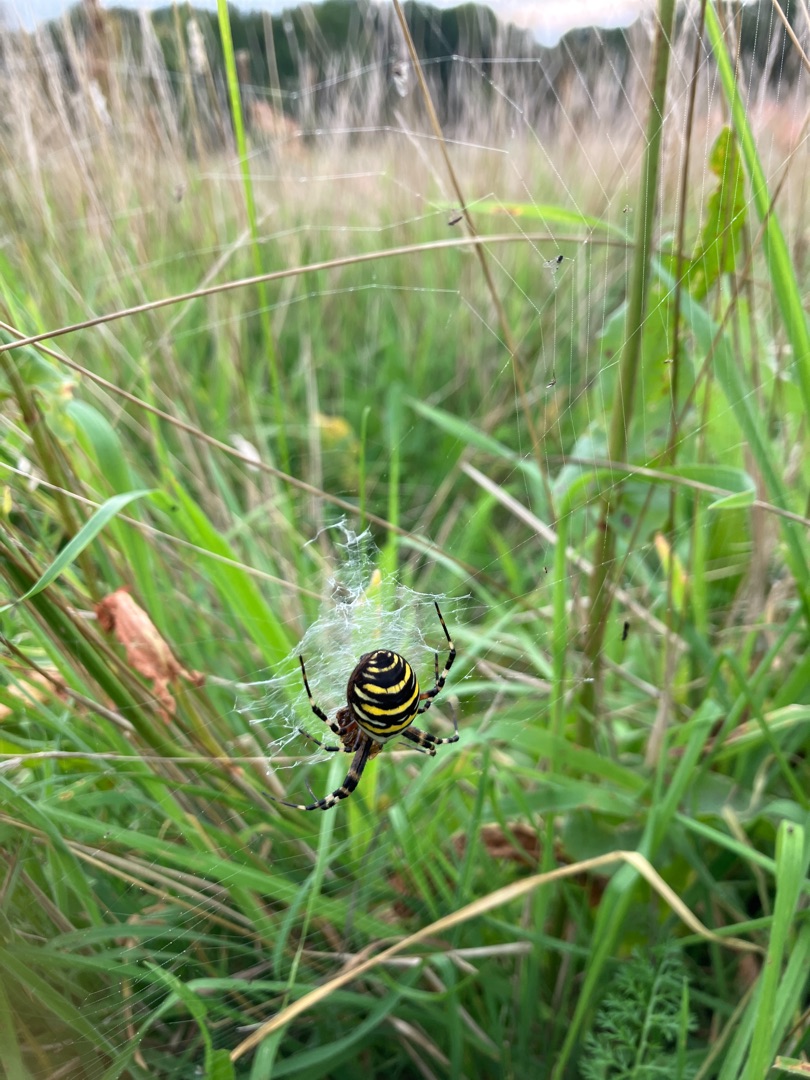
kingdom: Animalia
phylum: Arthropoda
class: Arachnida
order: Araneae
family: Araneidae
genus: Argiope
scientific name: Argiope bruennichi
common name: Hvepseedderkop
